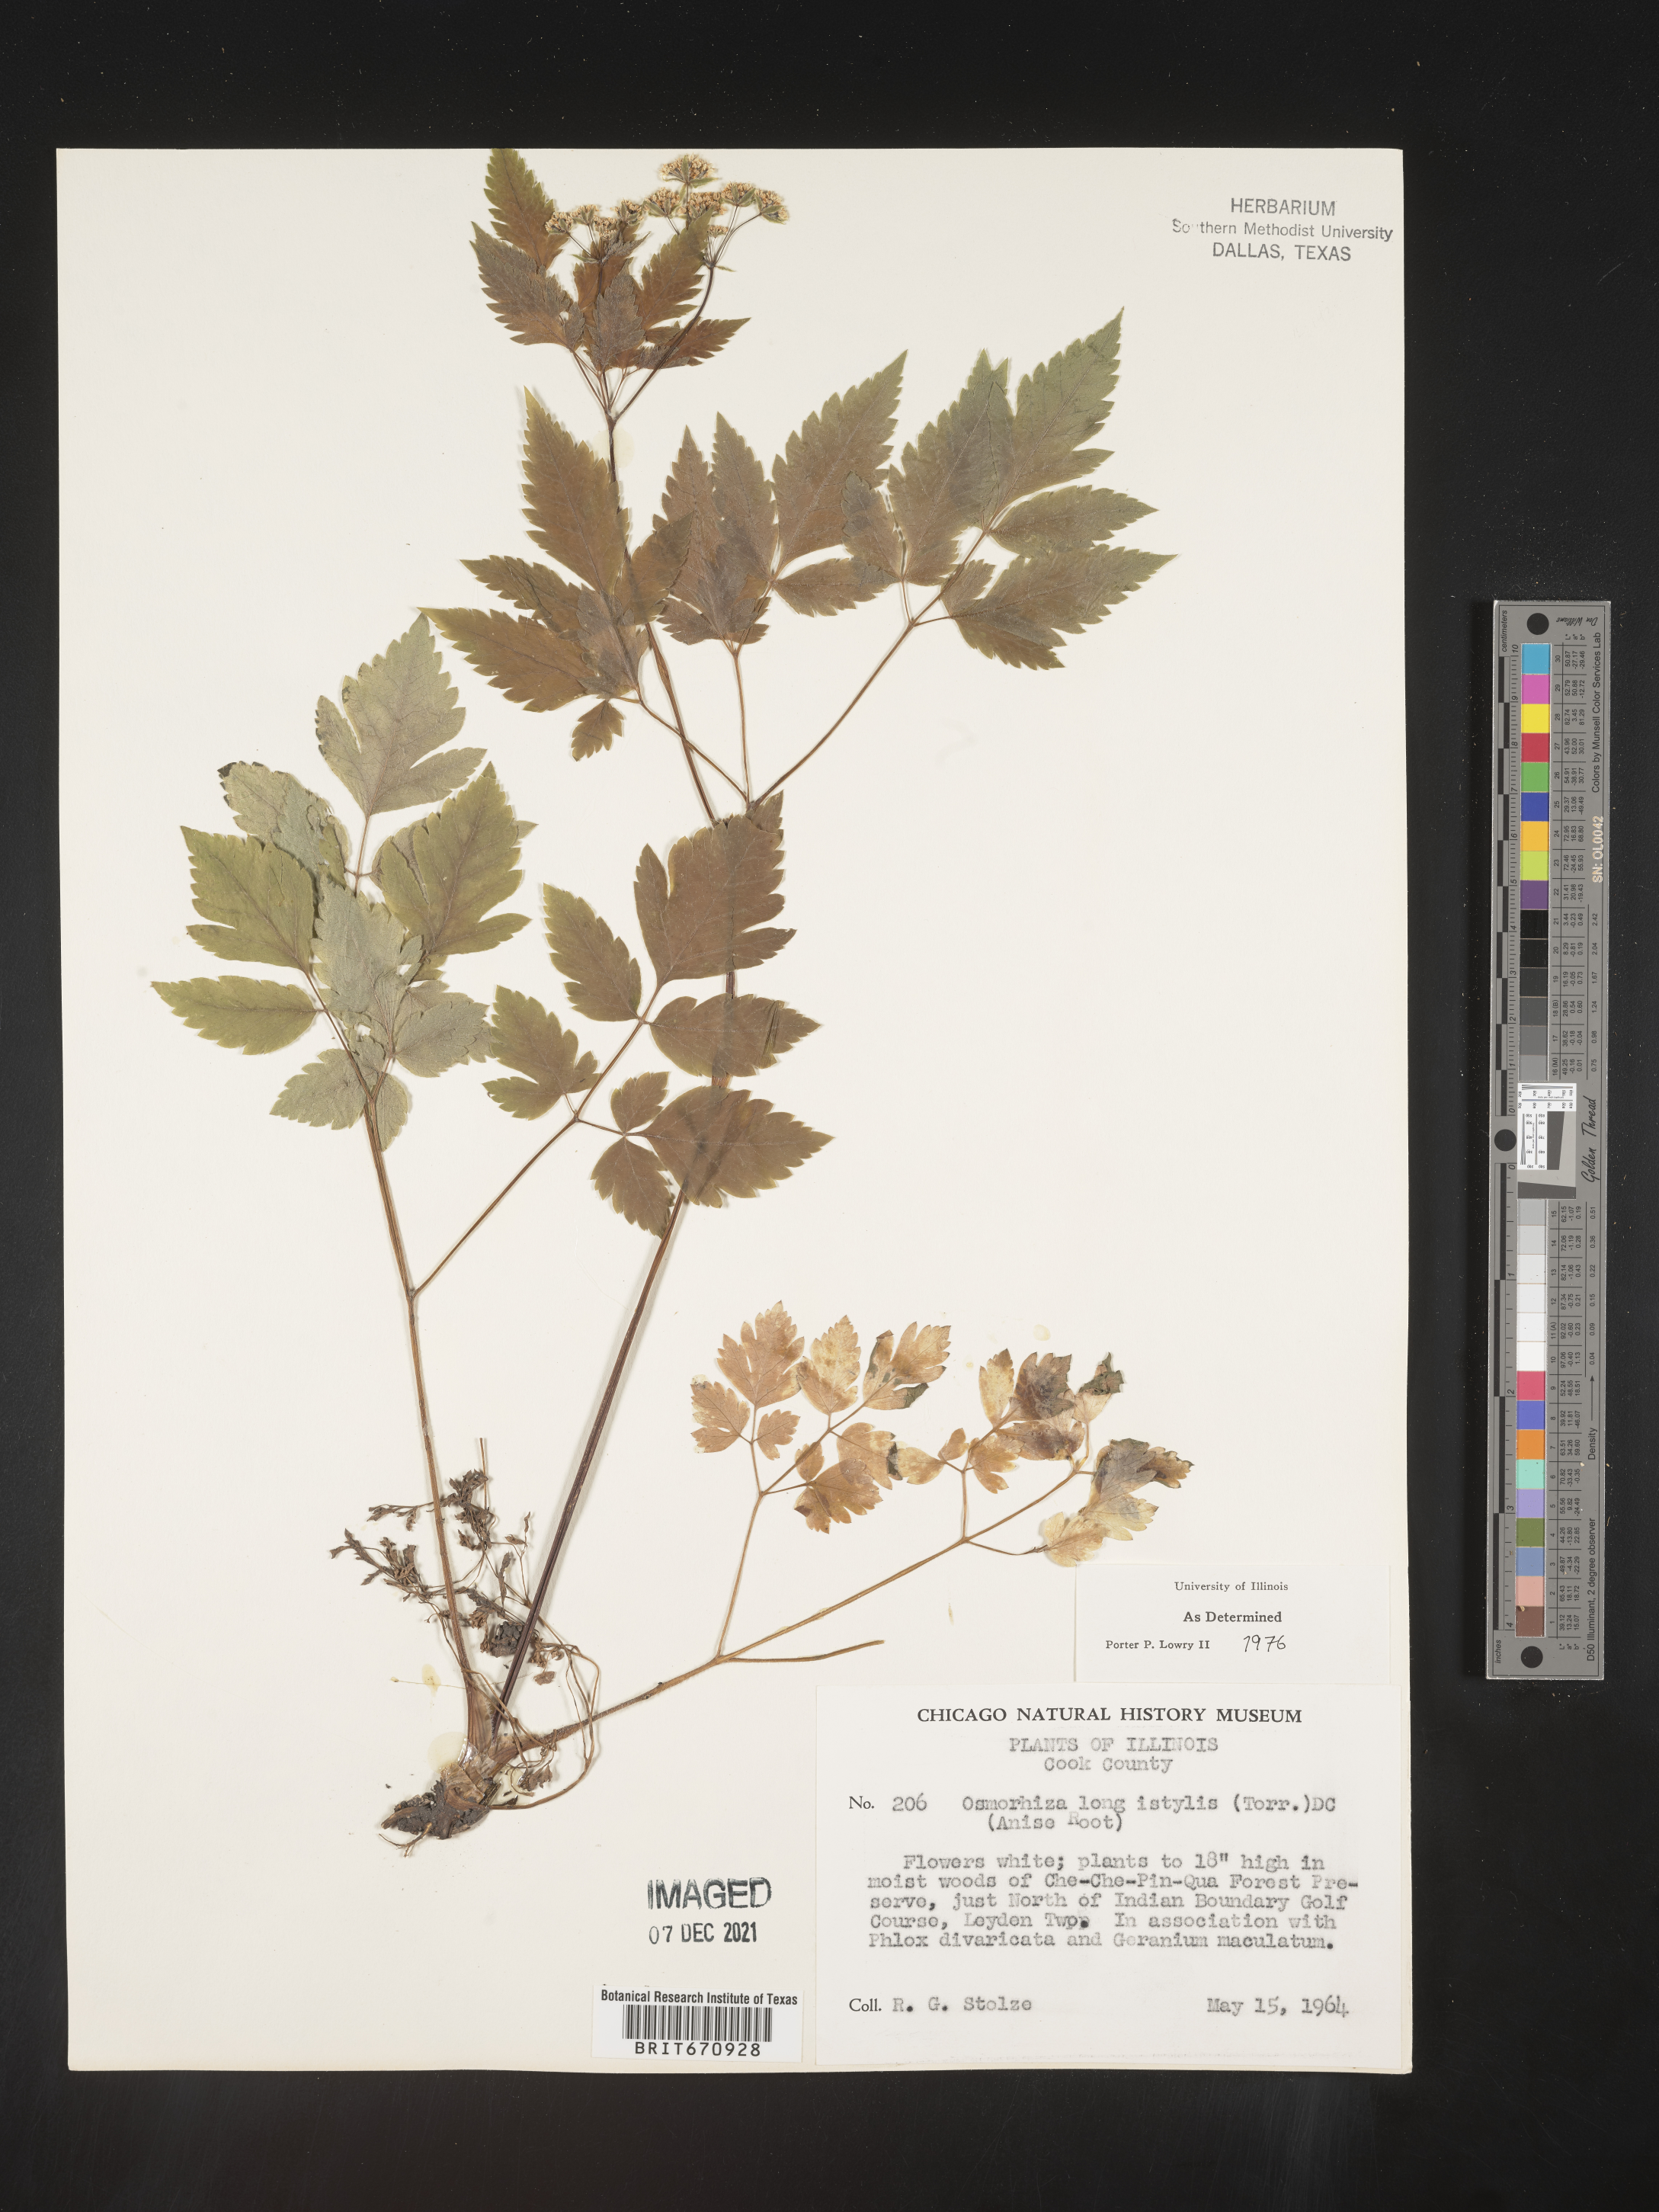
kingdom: Plantae
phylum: Tracheophyta
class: Magnoliopsida
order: Apiales
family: Apiaceae
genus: Osmorhiza
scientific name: Osmorhiza longistylis
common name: Smooth sweet cicely
